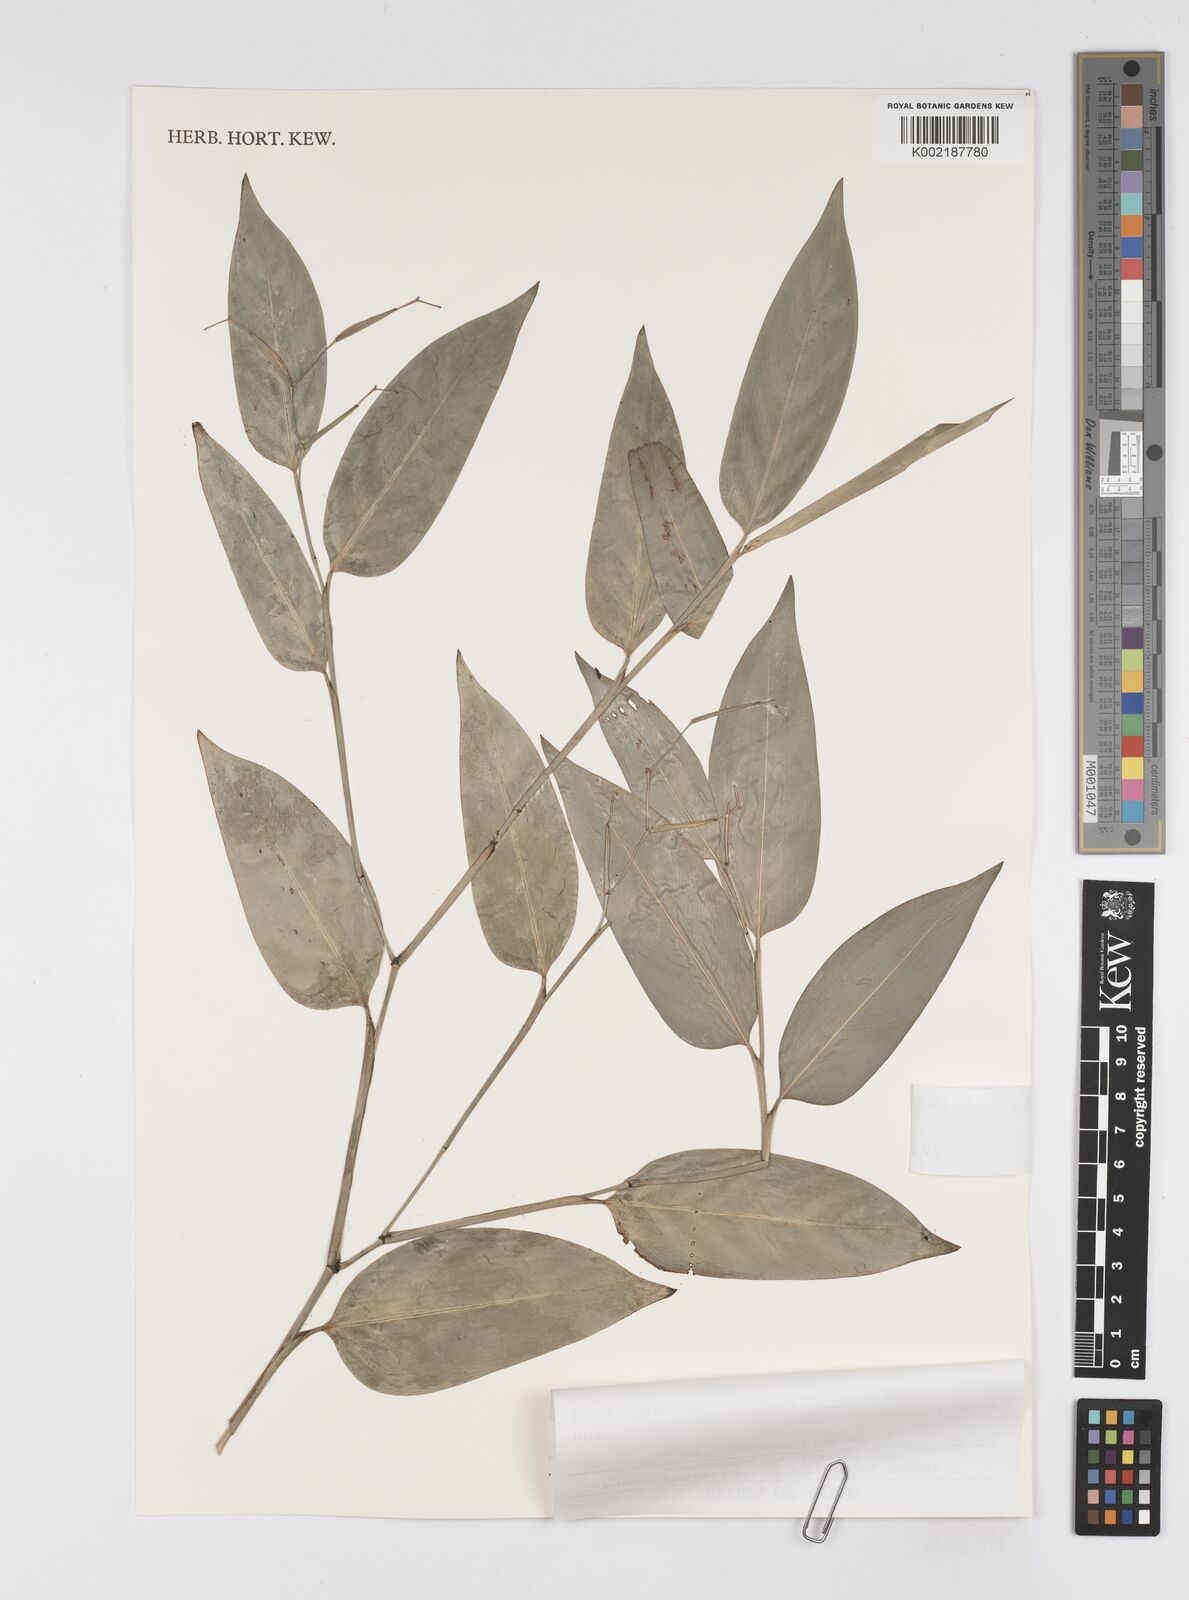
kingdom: Plantae
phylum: Tracheophyta
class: Liliopsida
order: Zingiberales
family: Marantaceae
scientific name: Marantaceae
